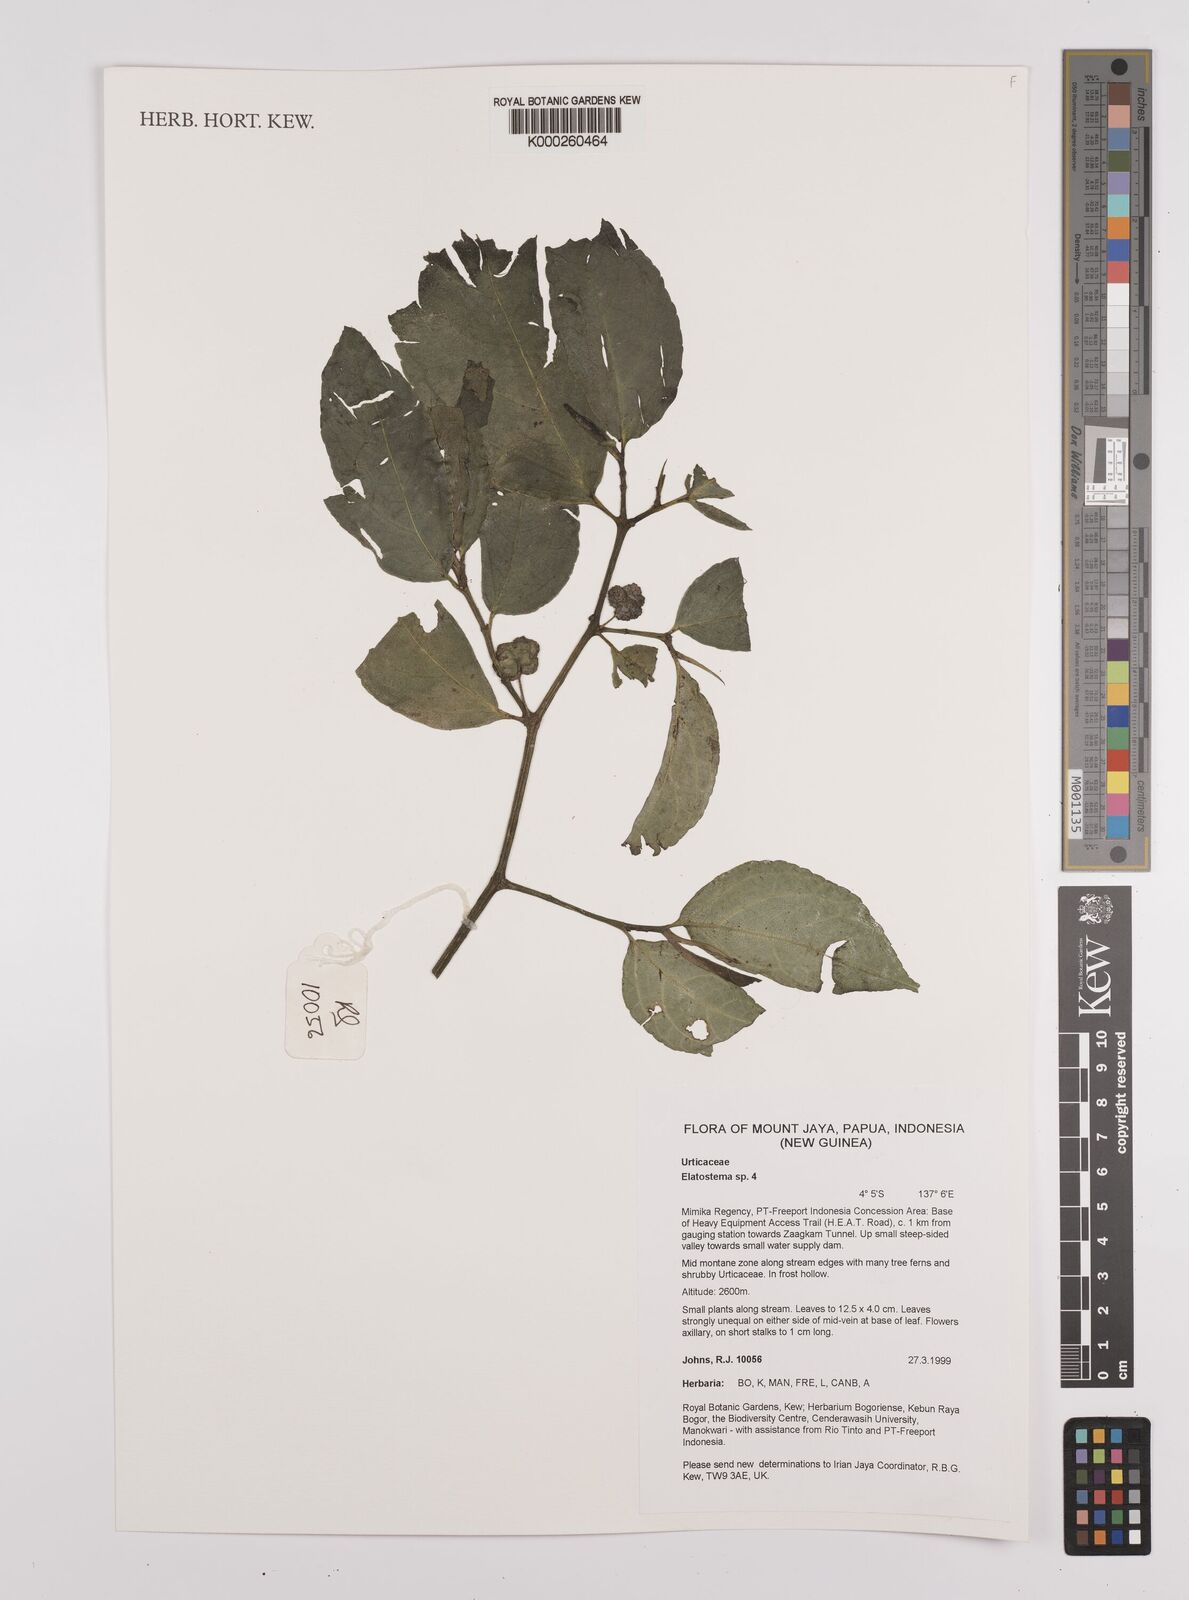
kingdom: Plantae
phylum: Tracheophyta
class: Magnoliopsida
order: Rosales
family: Urticaceae
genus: Elatostema
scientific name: Elatostema
